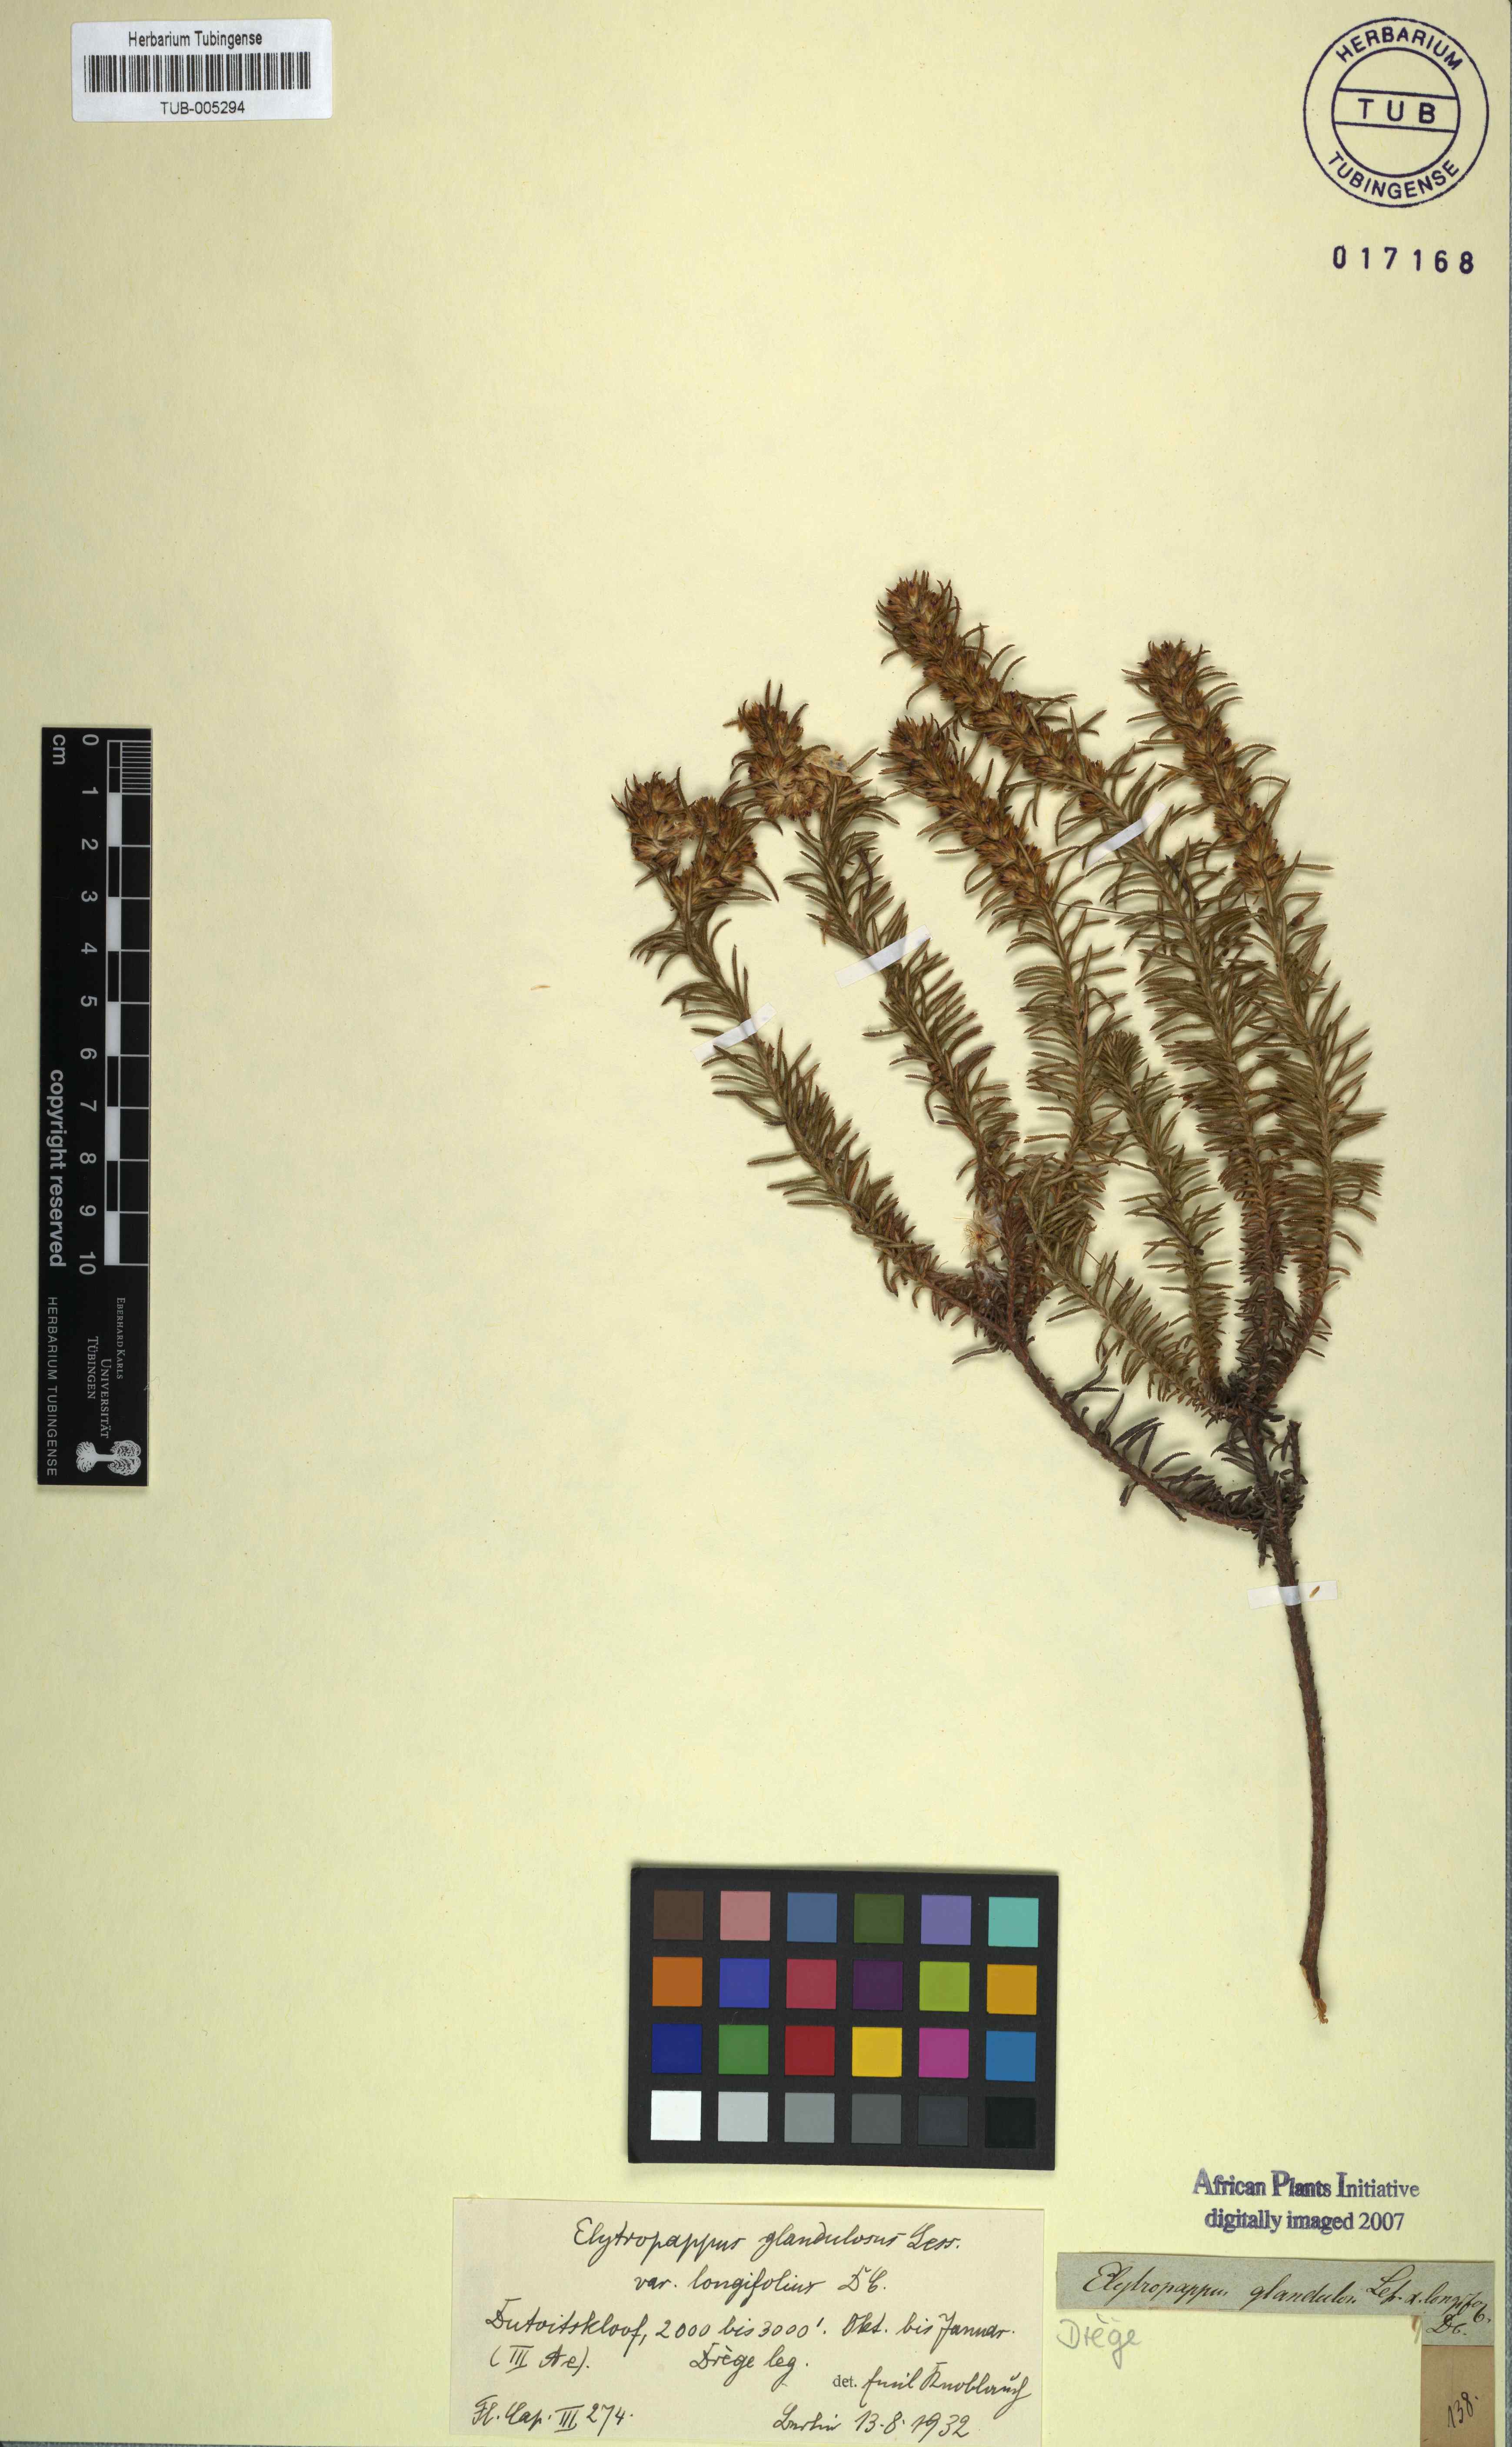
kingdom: Plantae
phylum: Tracheophyta
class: Magnoliopsida
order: Asterales
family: Asteraceae
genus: Myrovernix
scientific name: Myrovernix glandulosus
